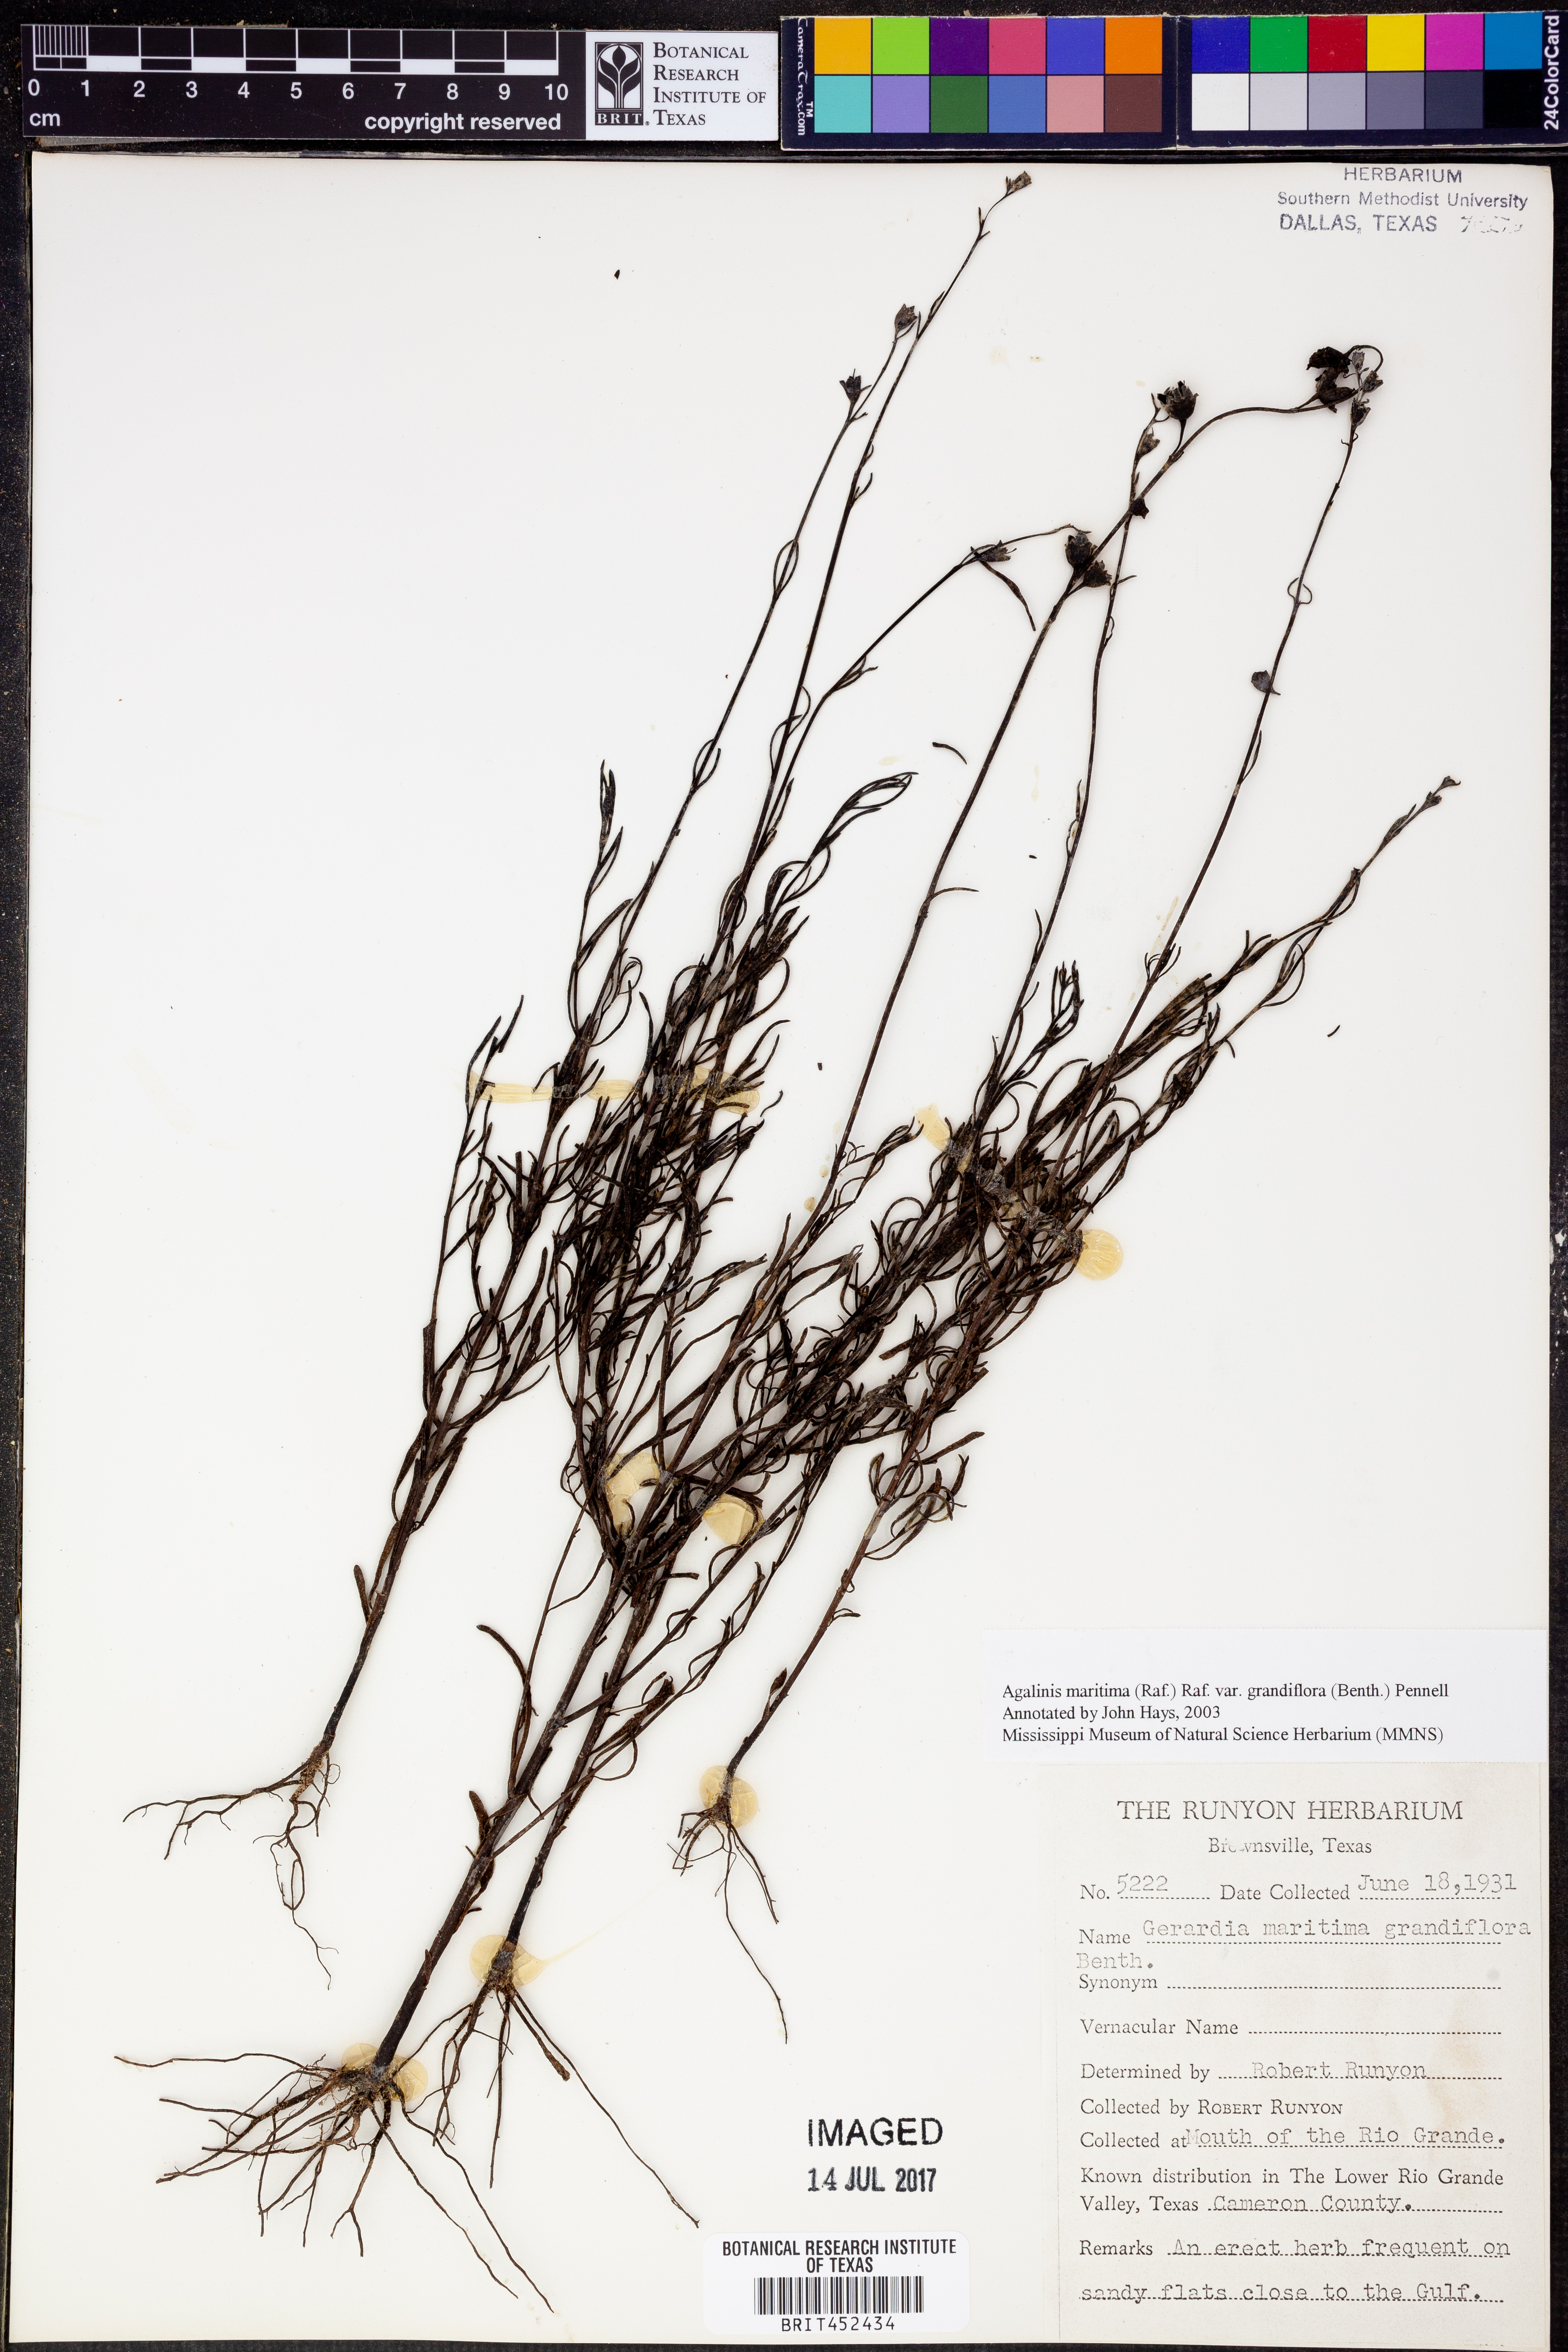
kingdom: Plantae
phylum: Tracheophyta
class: Magnoliopsida
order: Lamiales
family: Orobanchaceae
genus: Agalinis
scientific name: Agalinis harperi
